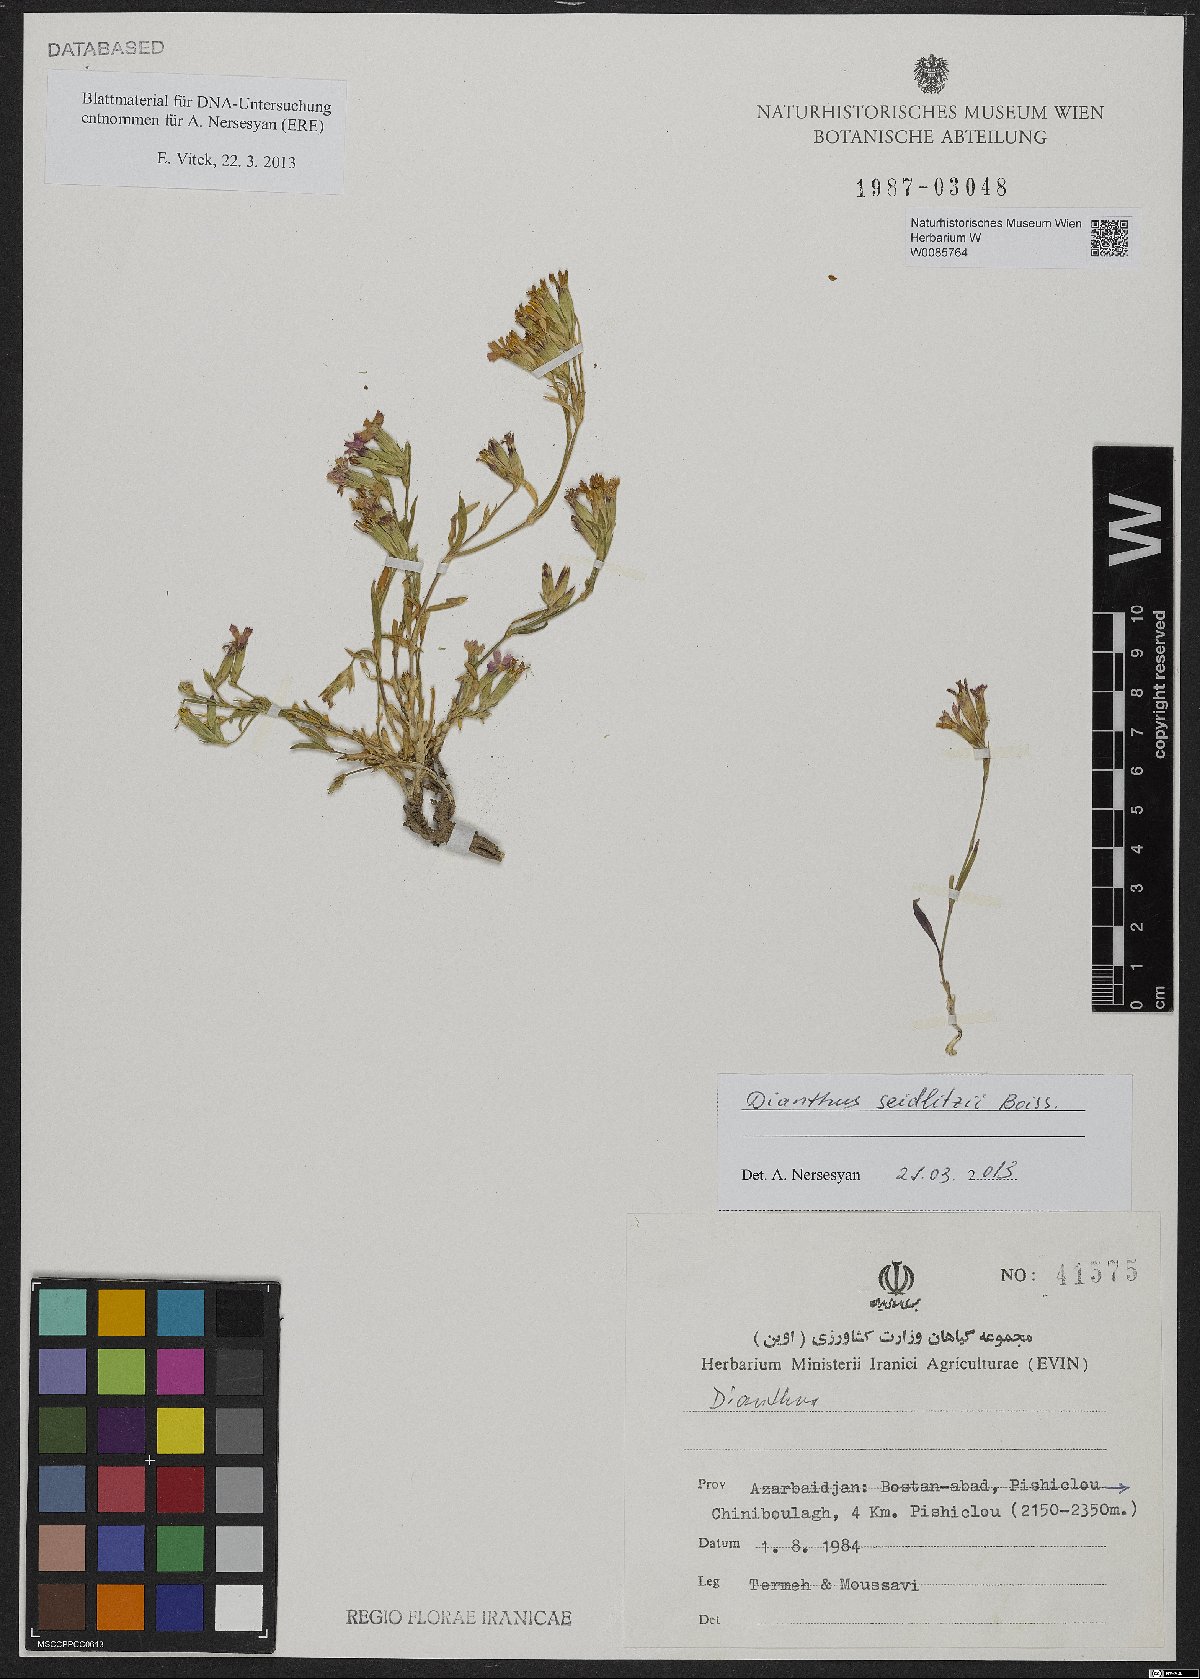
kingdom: Plantae
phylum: Tracheophyta
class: Magnoliopsida
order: Caryophyllales
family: Caryophyllaceae
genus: Dianthus
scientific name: Dianthus seidlitzii
